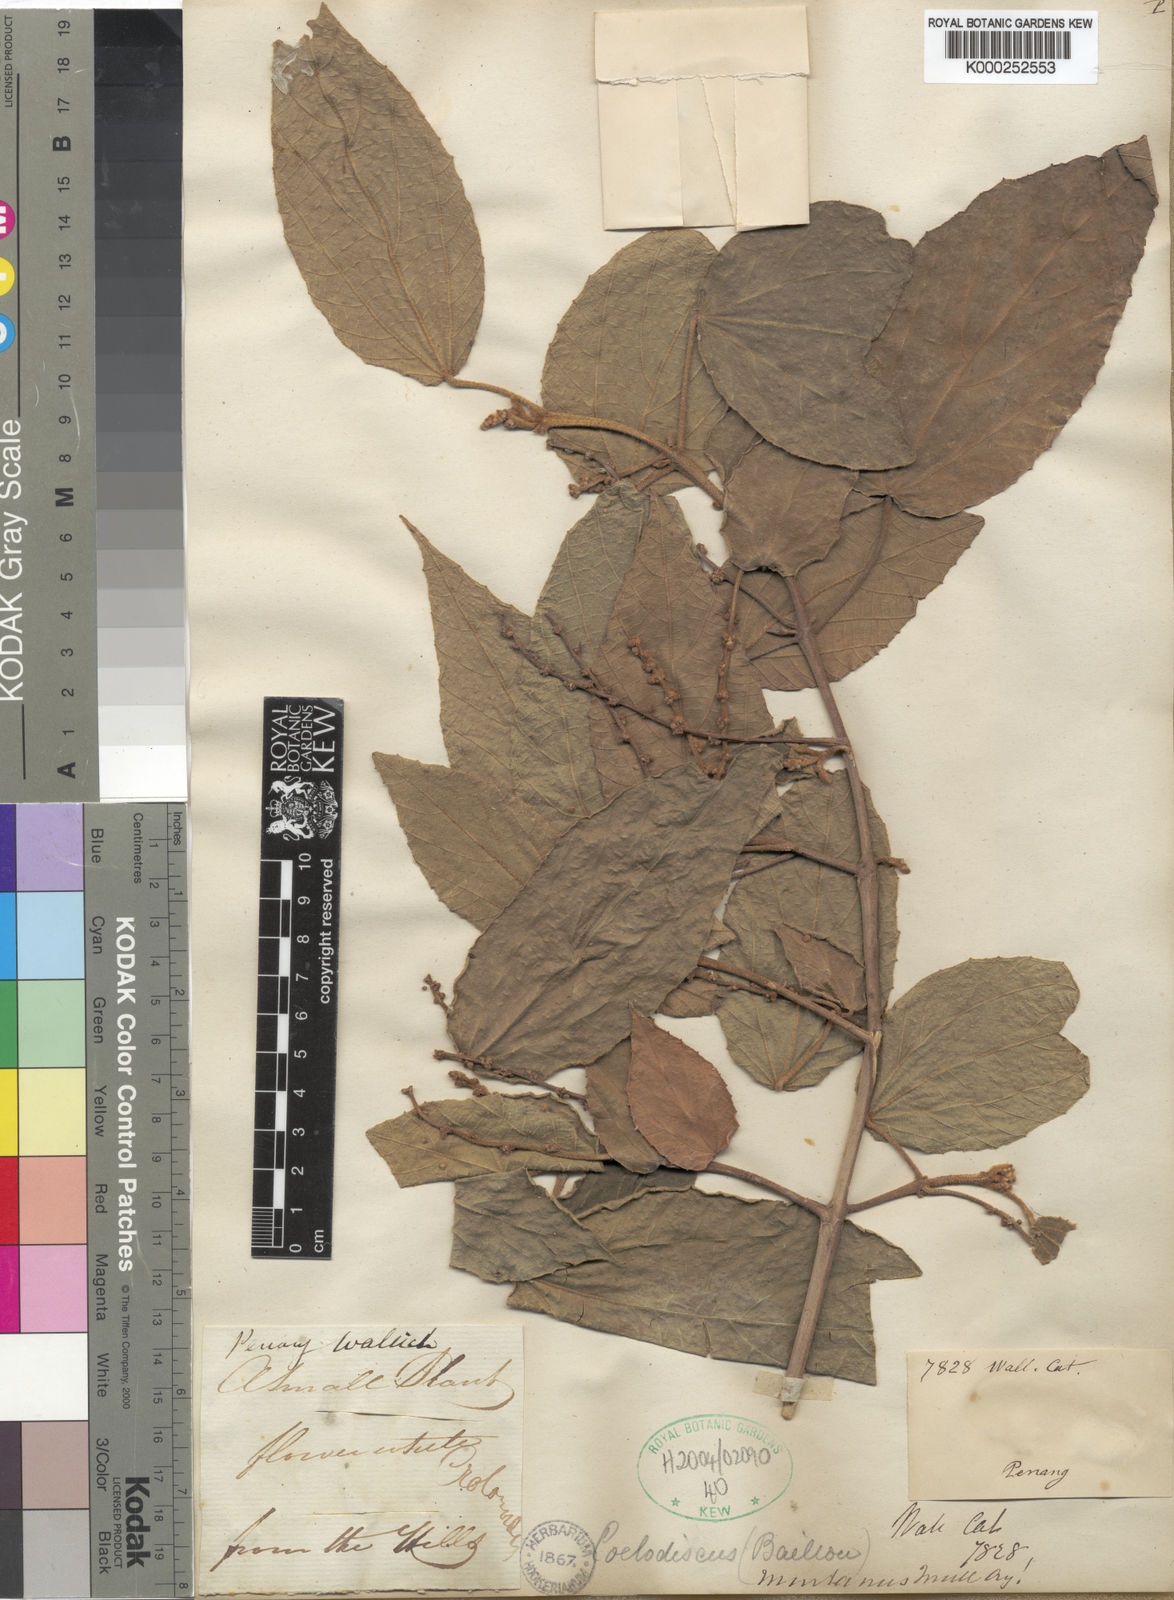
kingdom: Plantae
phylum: Tracheophyta
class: Magnoliopsida
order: Malpighiales
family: Euphorbiaceae
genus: Mallotus
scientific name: Mallotus
